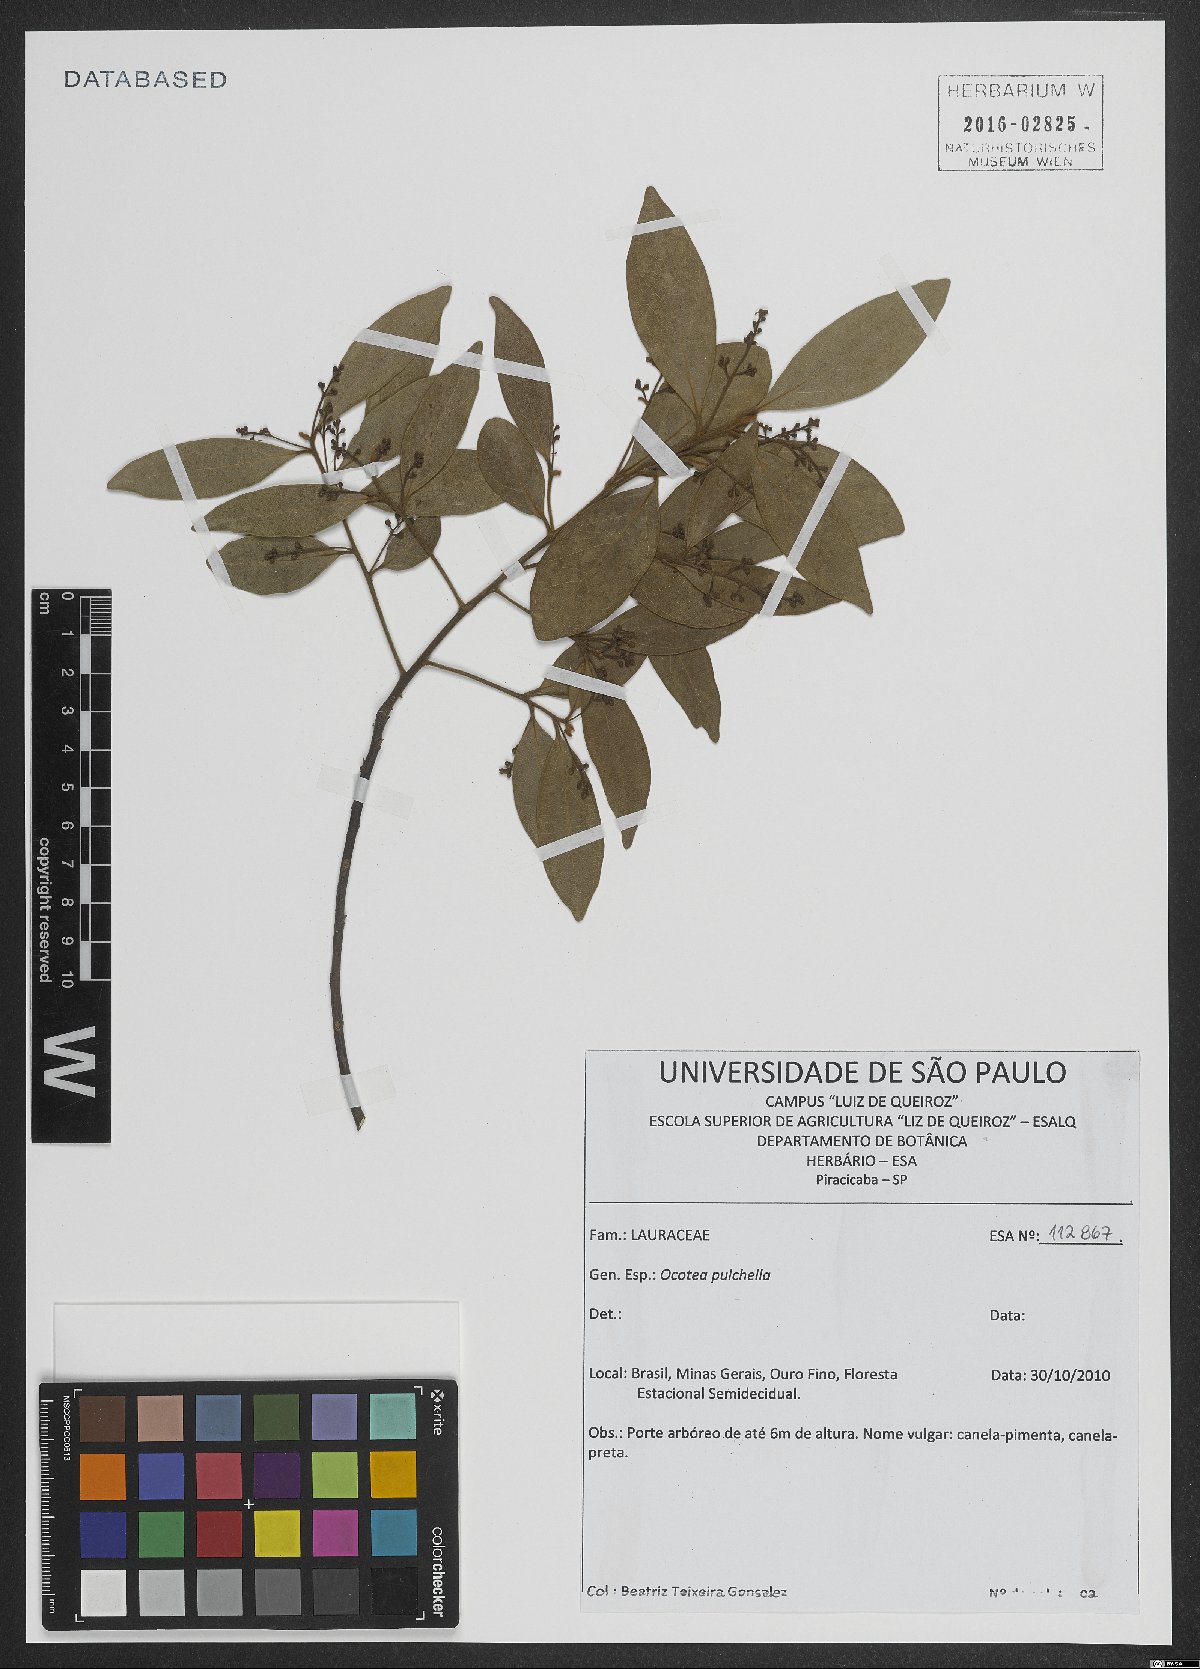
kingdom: Plantae
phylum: Tracheophyta
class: Magnoliopsida
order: Laurales
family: Lauraceae
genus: Mespilodaphne
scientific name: Mespilodaphne pulchella
